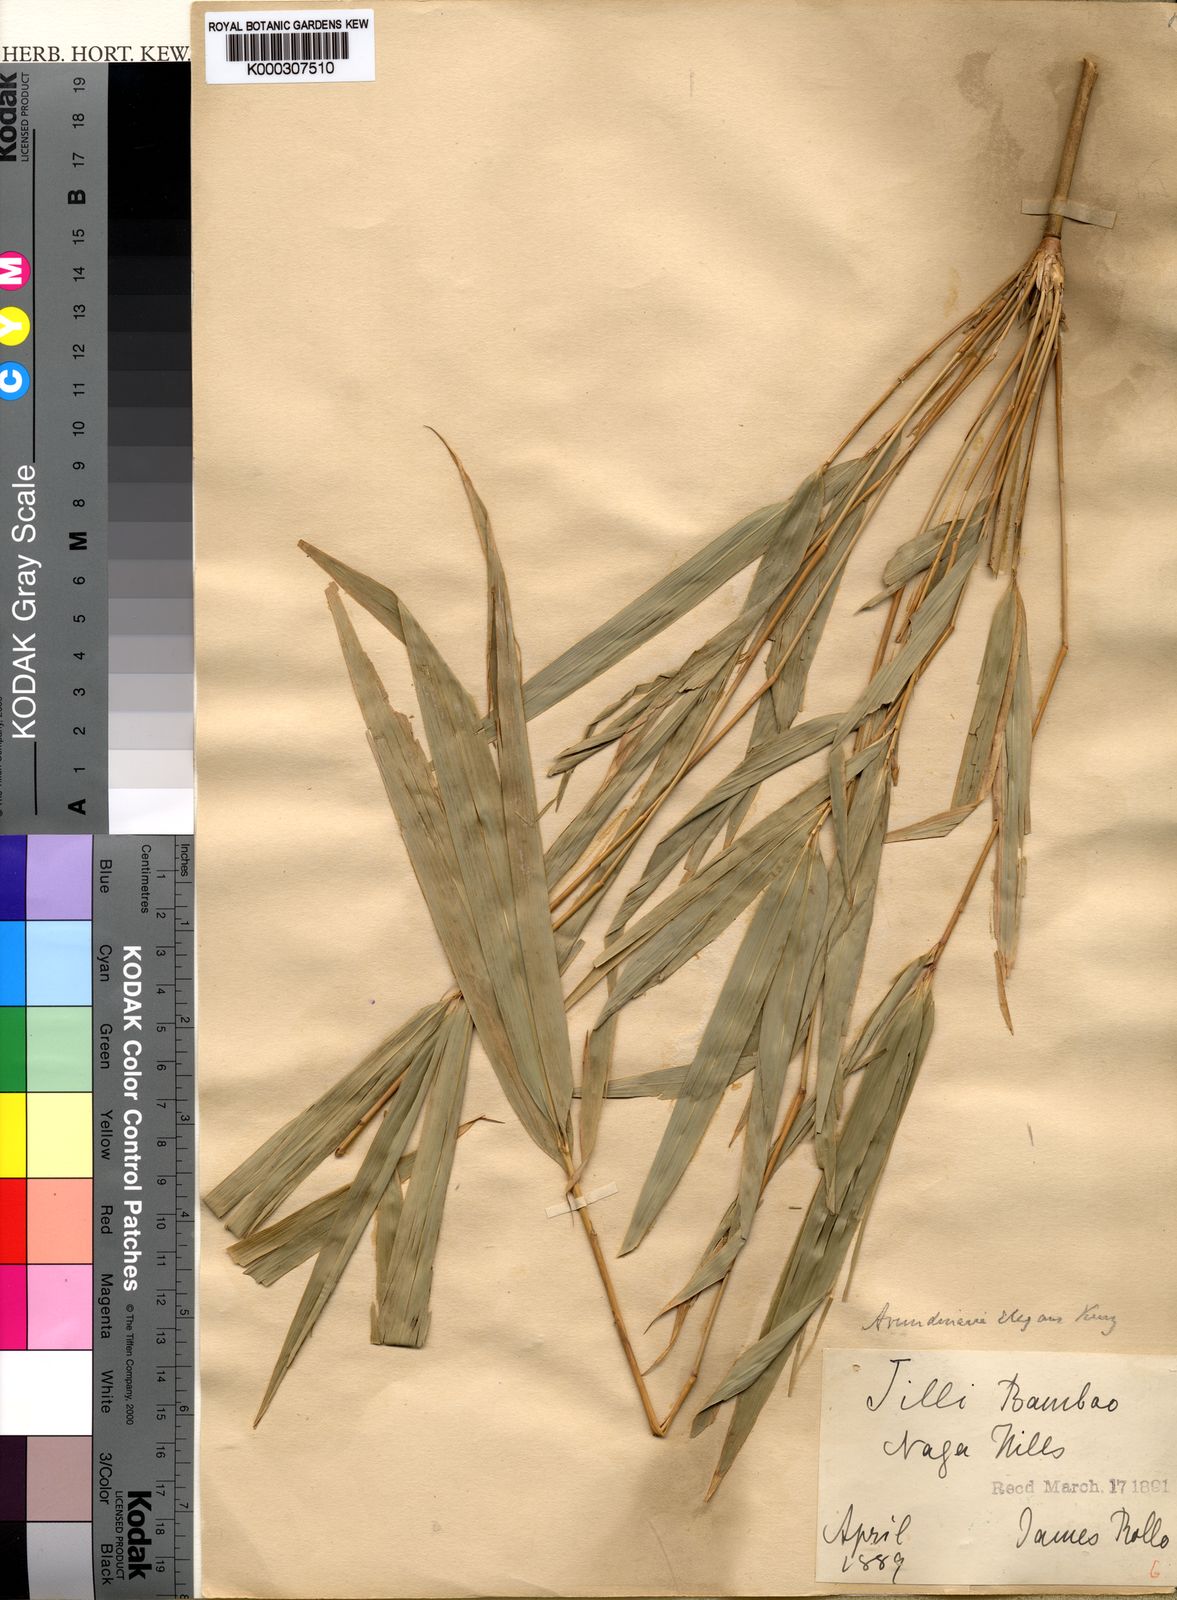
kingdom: Plantae
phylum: Tracheophyta
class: Liliopsida
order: Poales
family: Poaceae
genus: Yushania
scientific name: Yushania elegans
